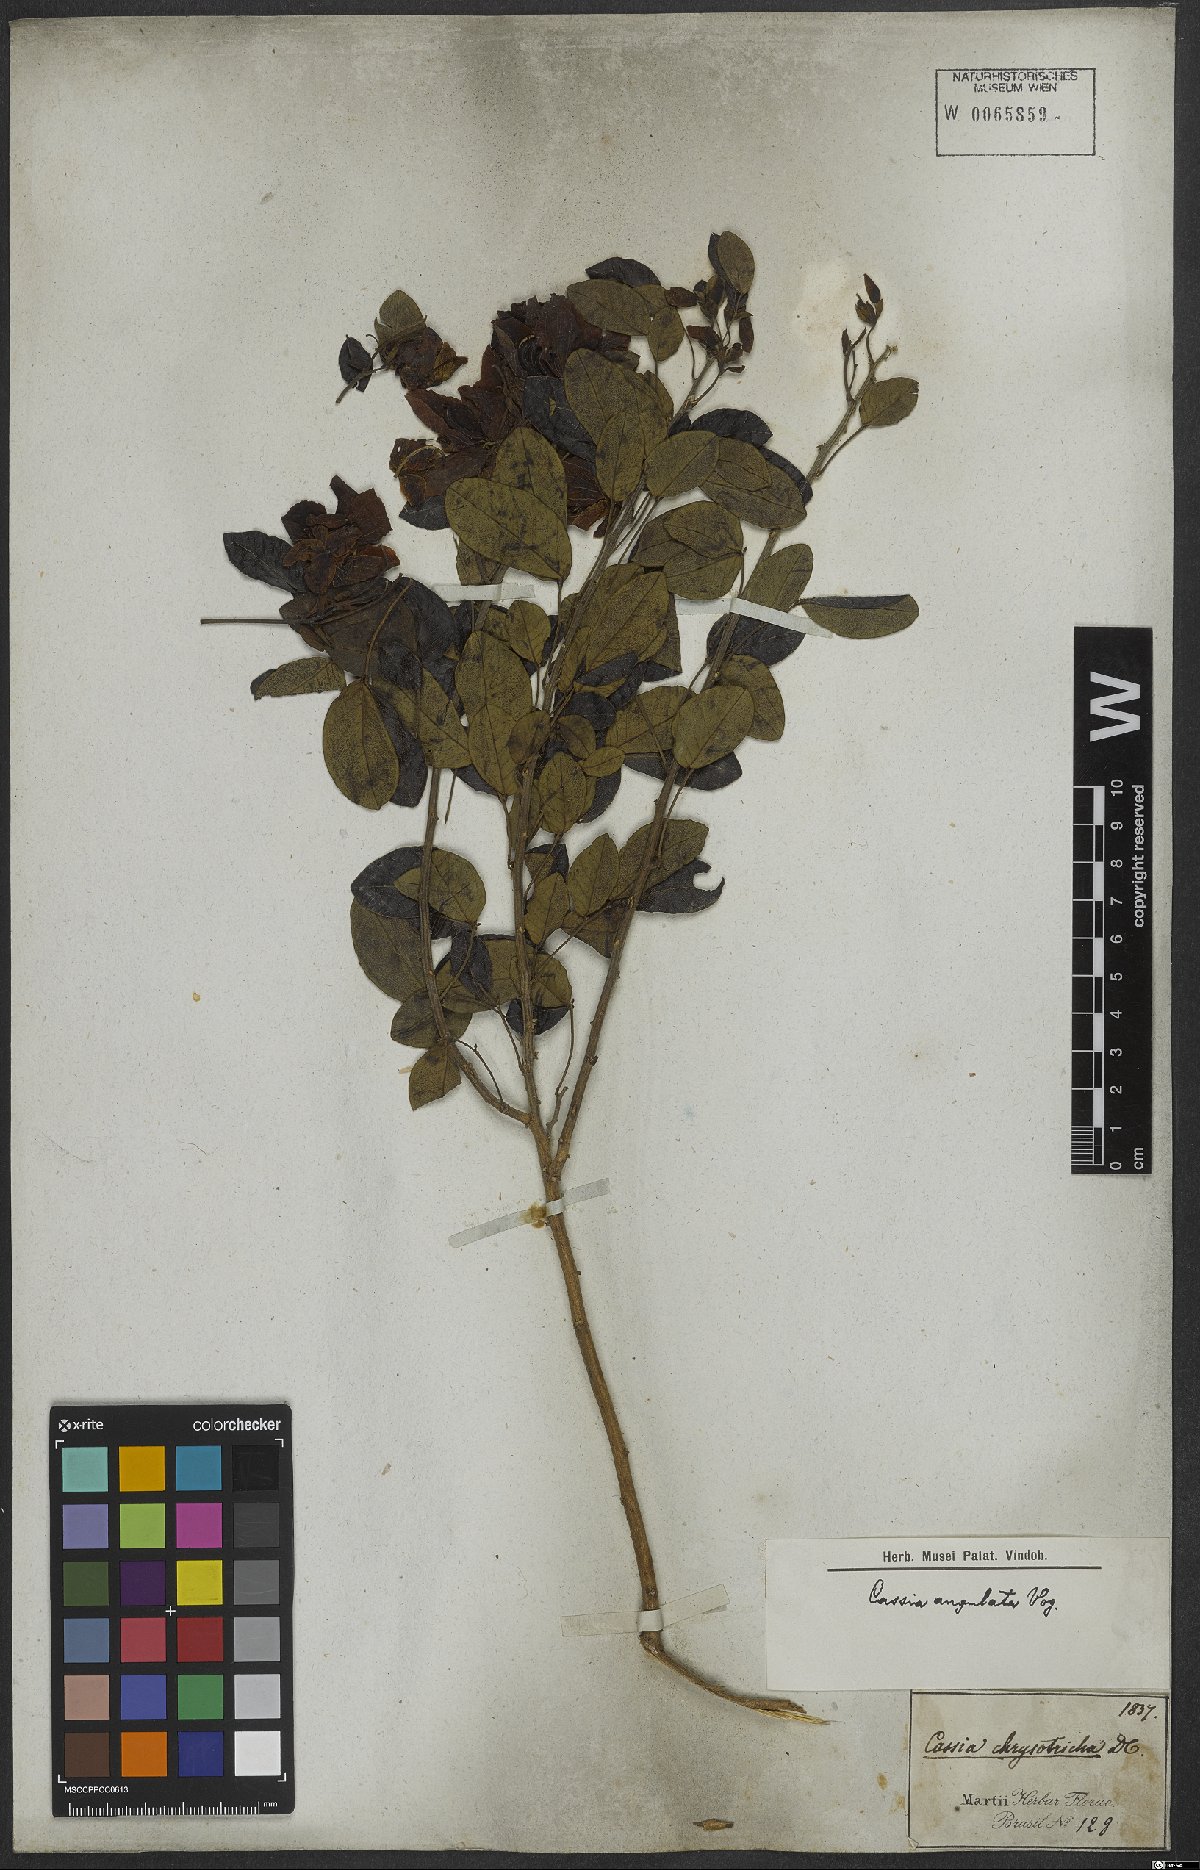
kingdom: Plantae
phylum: Tracheophyta
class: Magnoliopsida
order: Fabales
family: Fabaceae
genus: Senna
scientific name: Senna angulata
